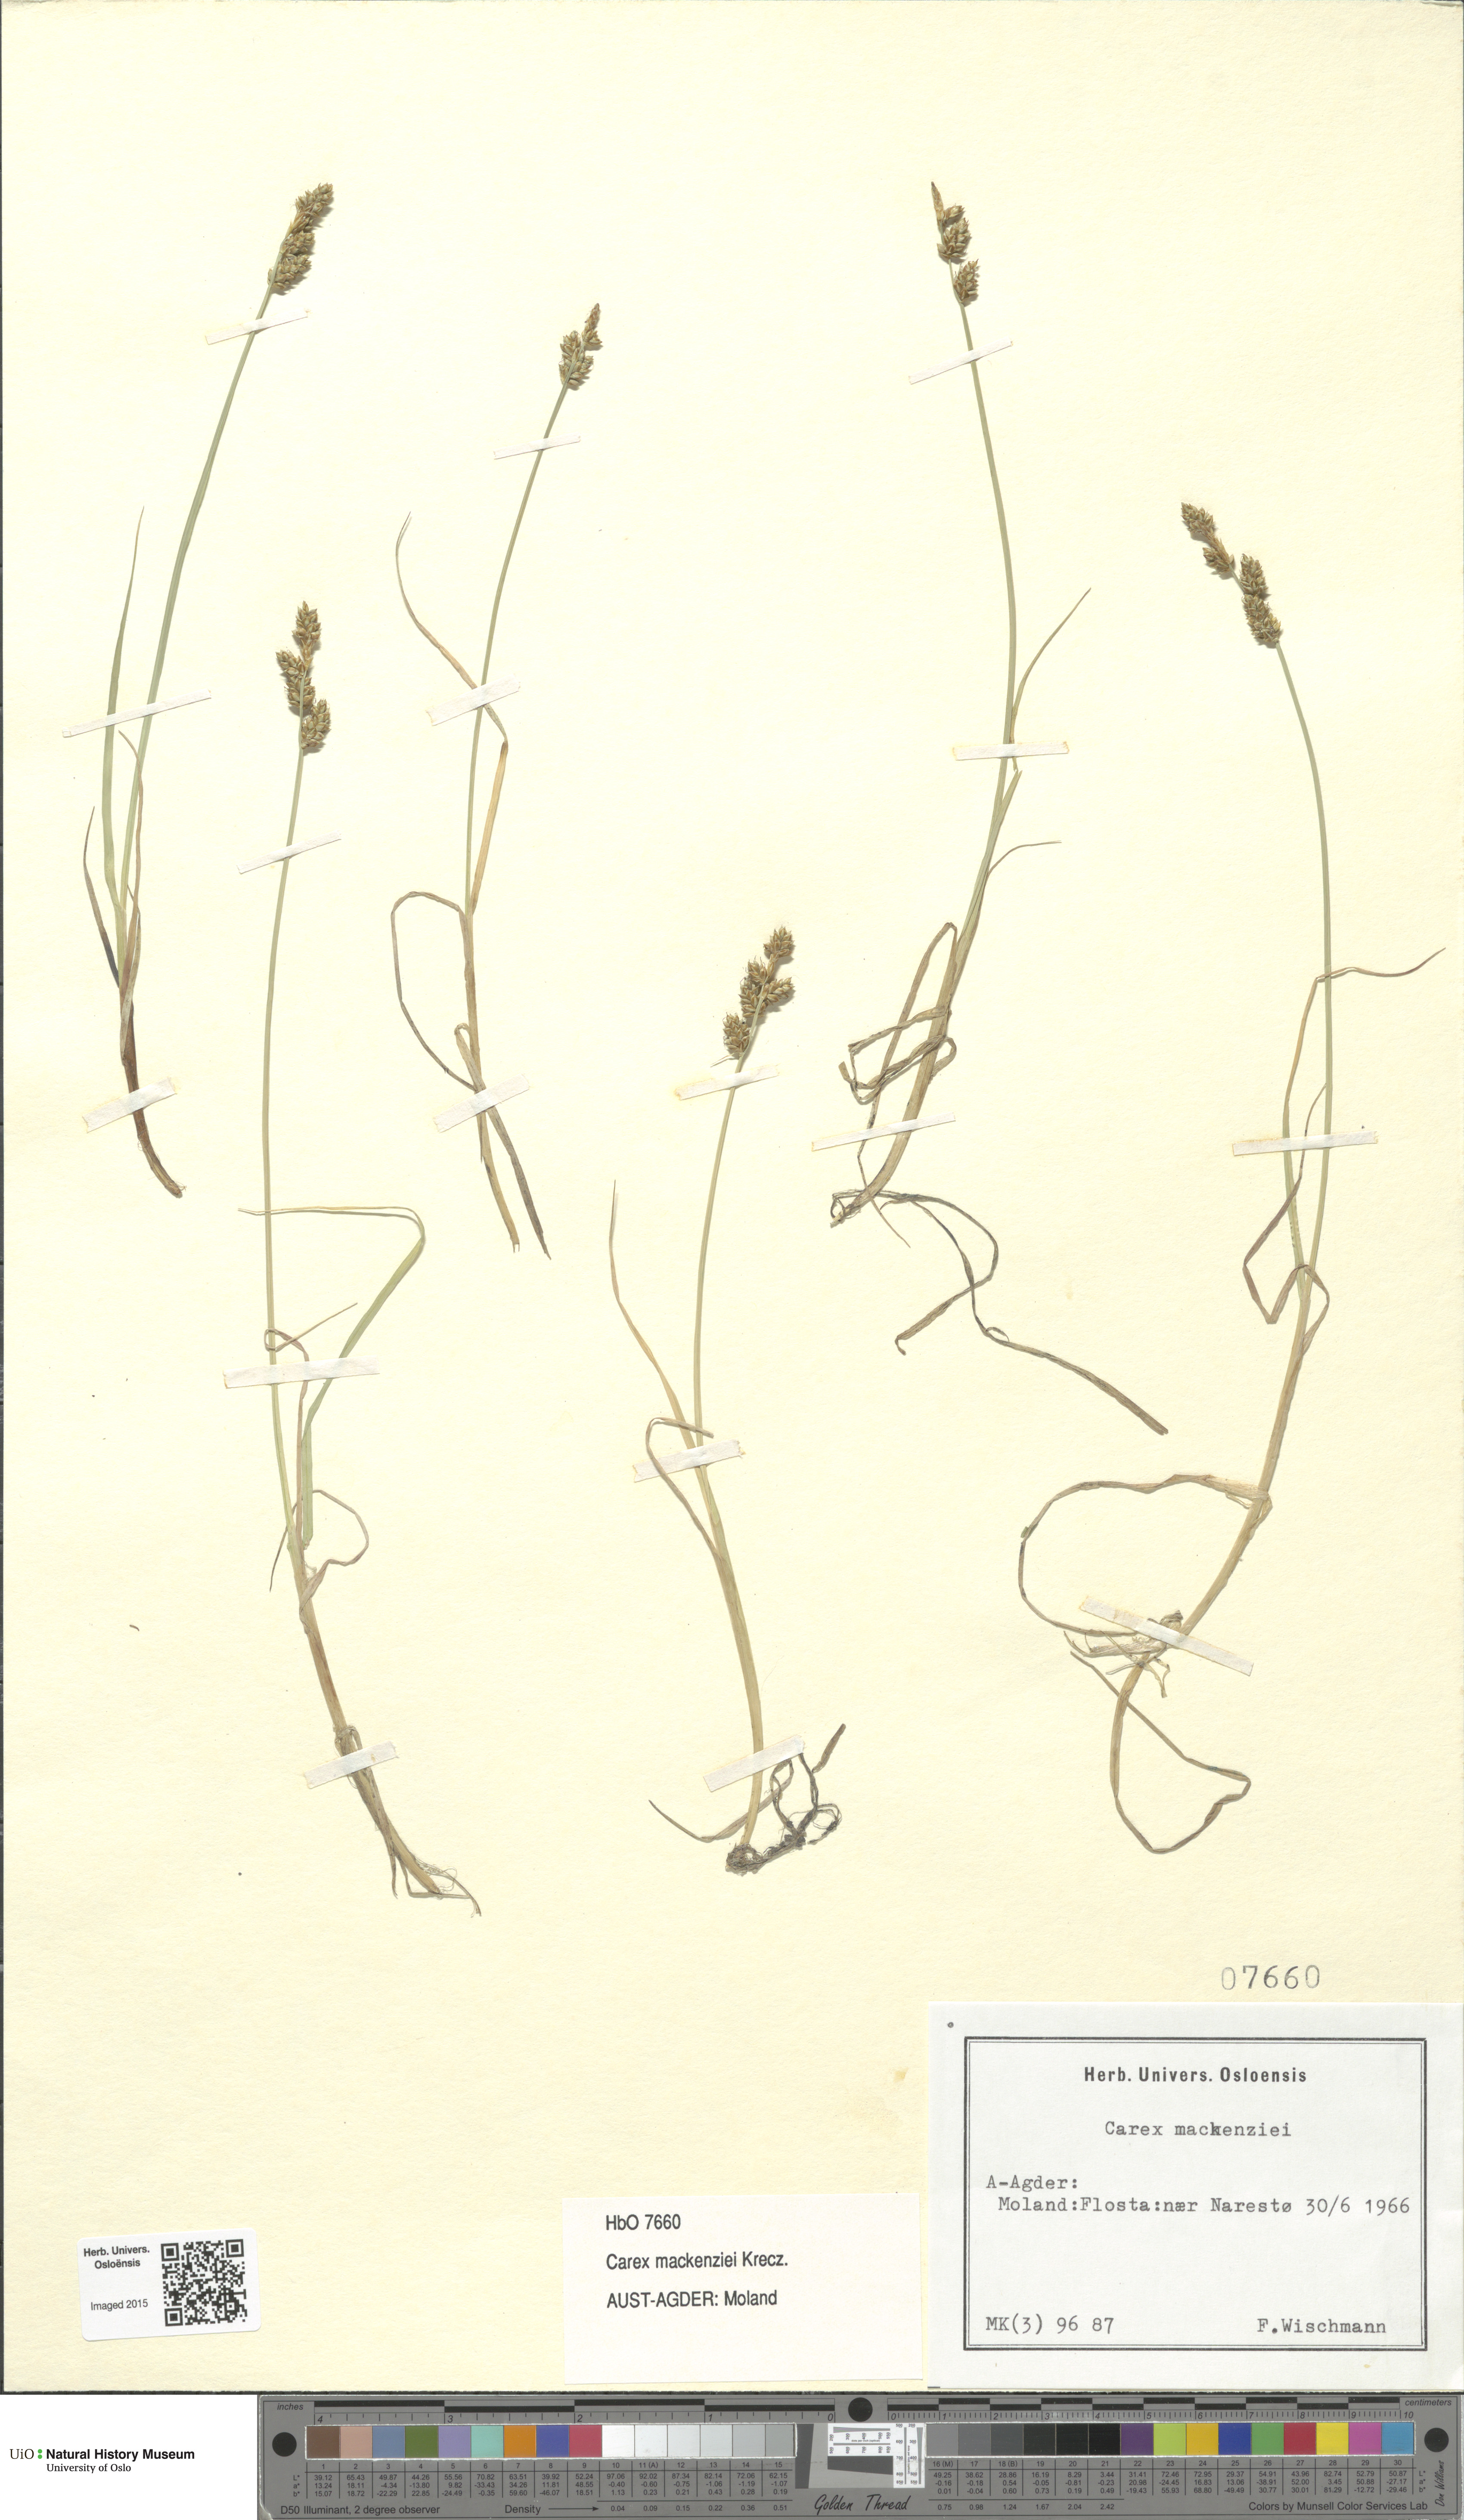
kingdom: Plantae
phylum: Tracheophyta
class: Liliopsida
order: Poales
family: Cyperaceae
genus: Carex
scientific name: Carex mackenziei
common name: Mackenzie's sedge
